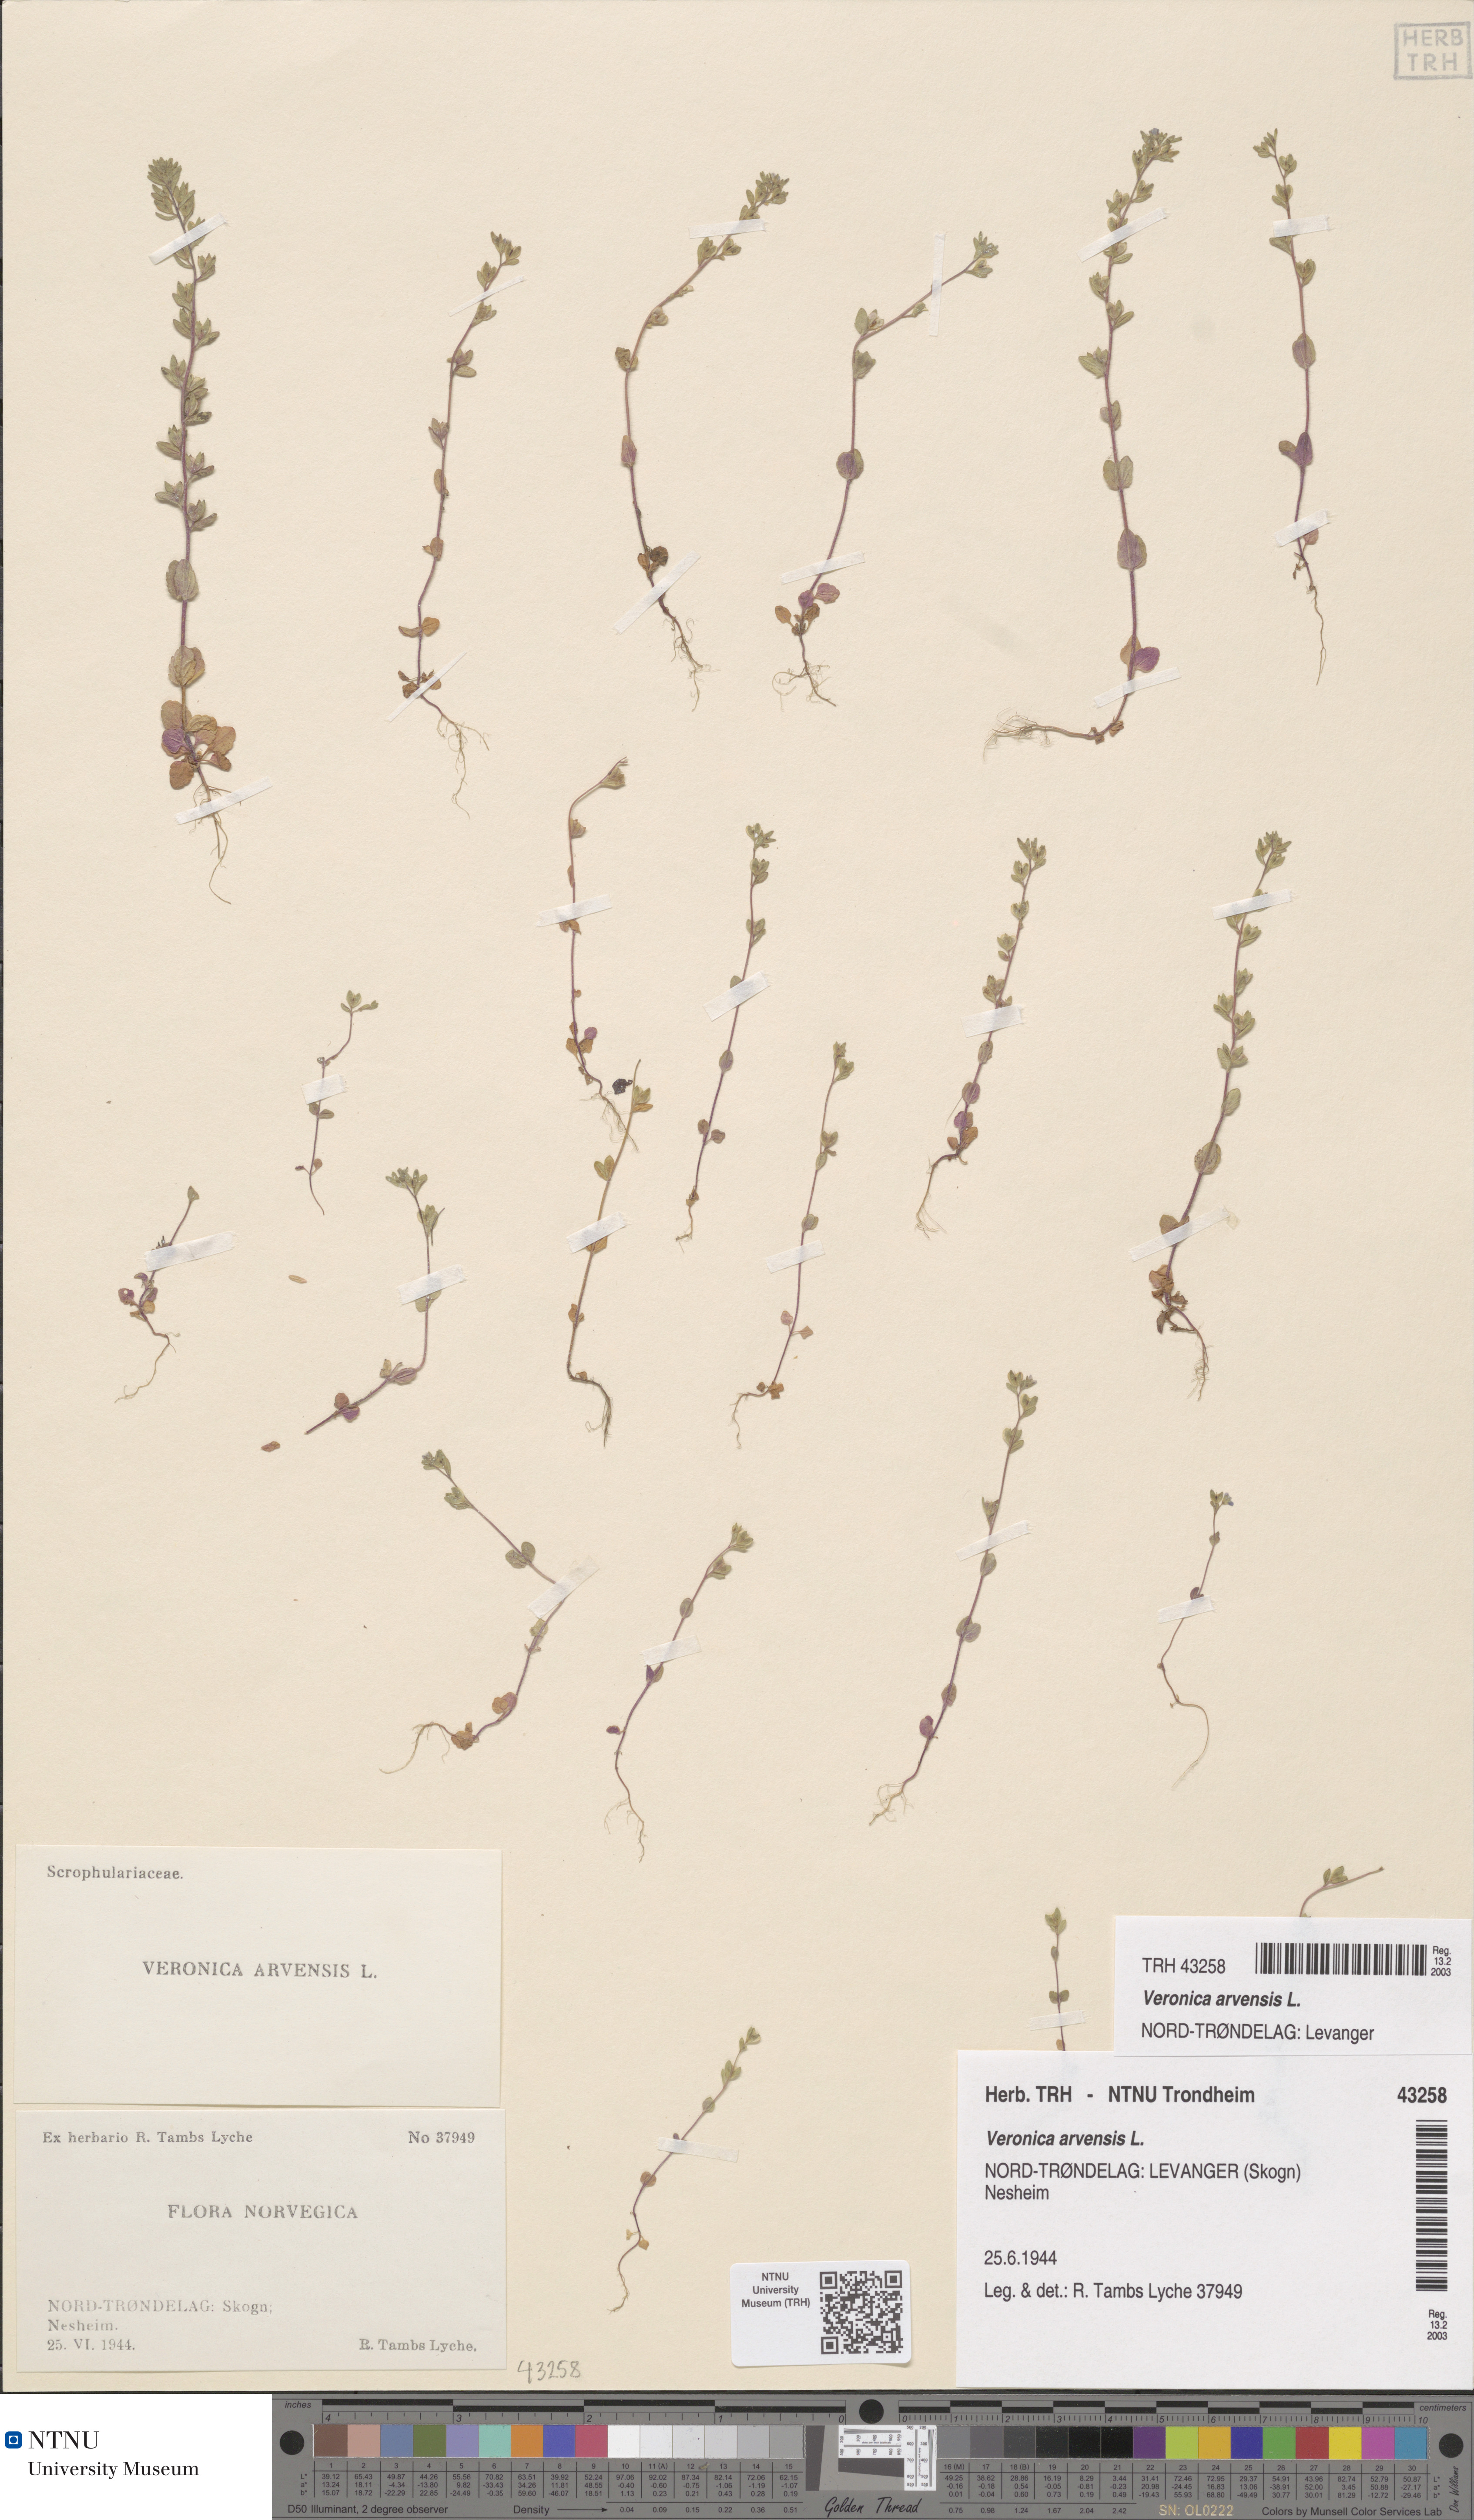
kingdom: Plantae
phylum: Tracheophyta
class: Magnoliopsida
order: Lamiales
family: Plantaginaceae
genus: Veronica
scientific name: Veronica arvensis
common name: Corn speedwell
